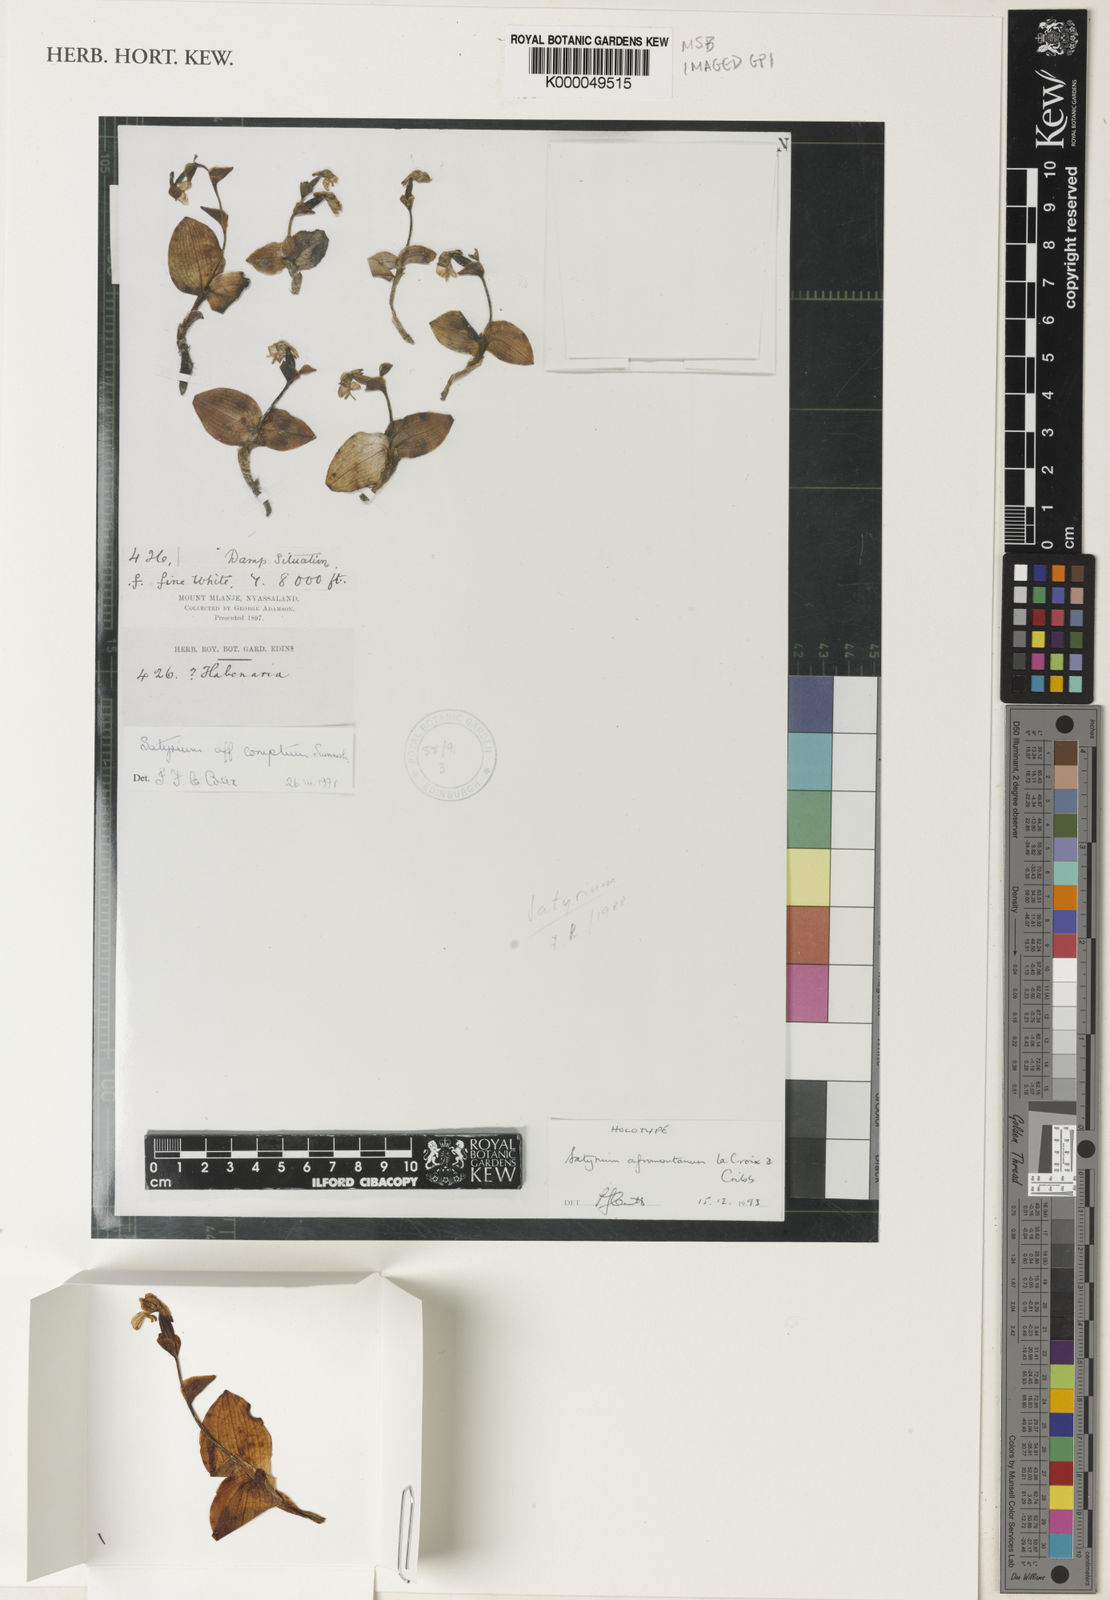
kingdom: Plantae
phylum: Tracheophyta
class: Liliopsida
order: Asparagales
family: Orchidaceae
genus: Satyrium
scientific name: Satyrium afromontanum
